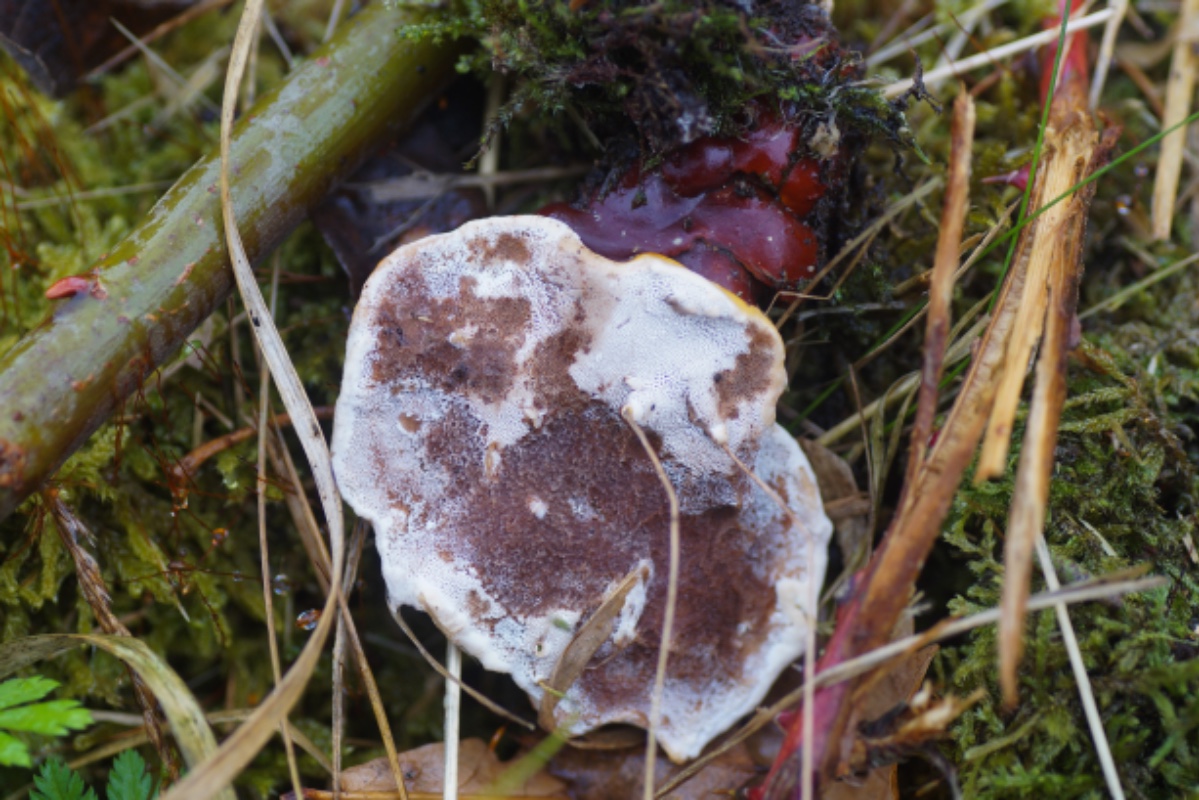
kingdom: Fungi
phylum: Basidiomycota
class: Agaricomycetes
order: Polyporales
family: Polyporaceae
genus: Ganoderma
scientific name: Ganoderma lucidum
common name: skinnende lakporesvamp
